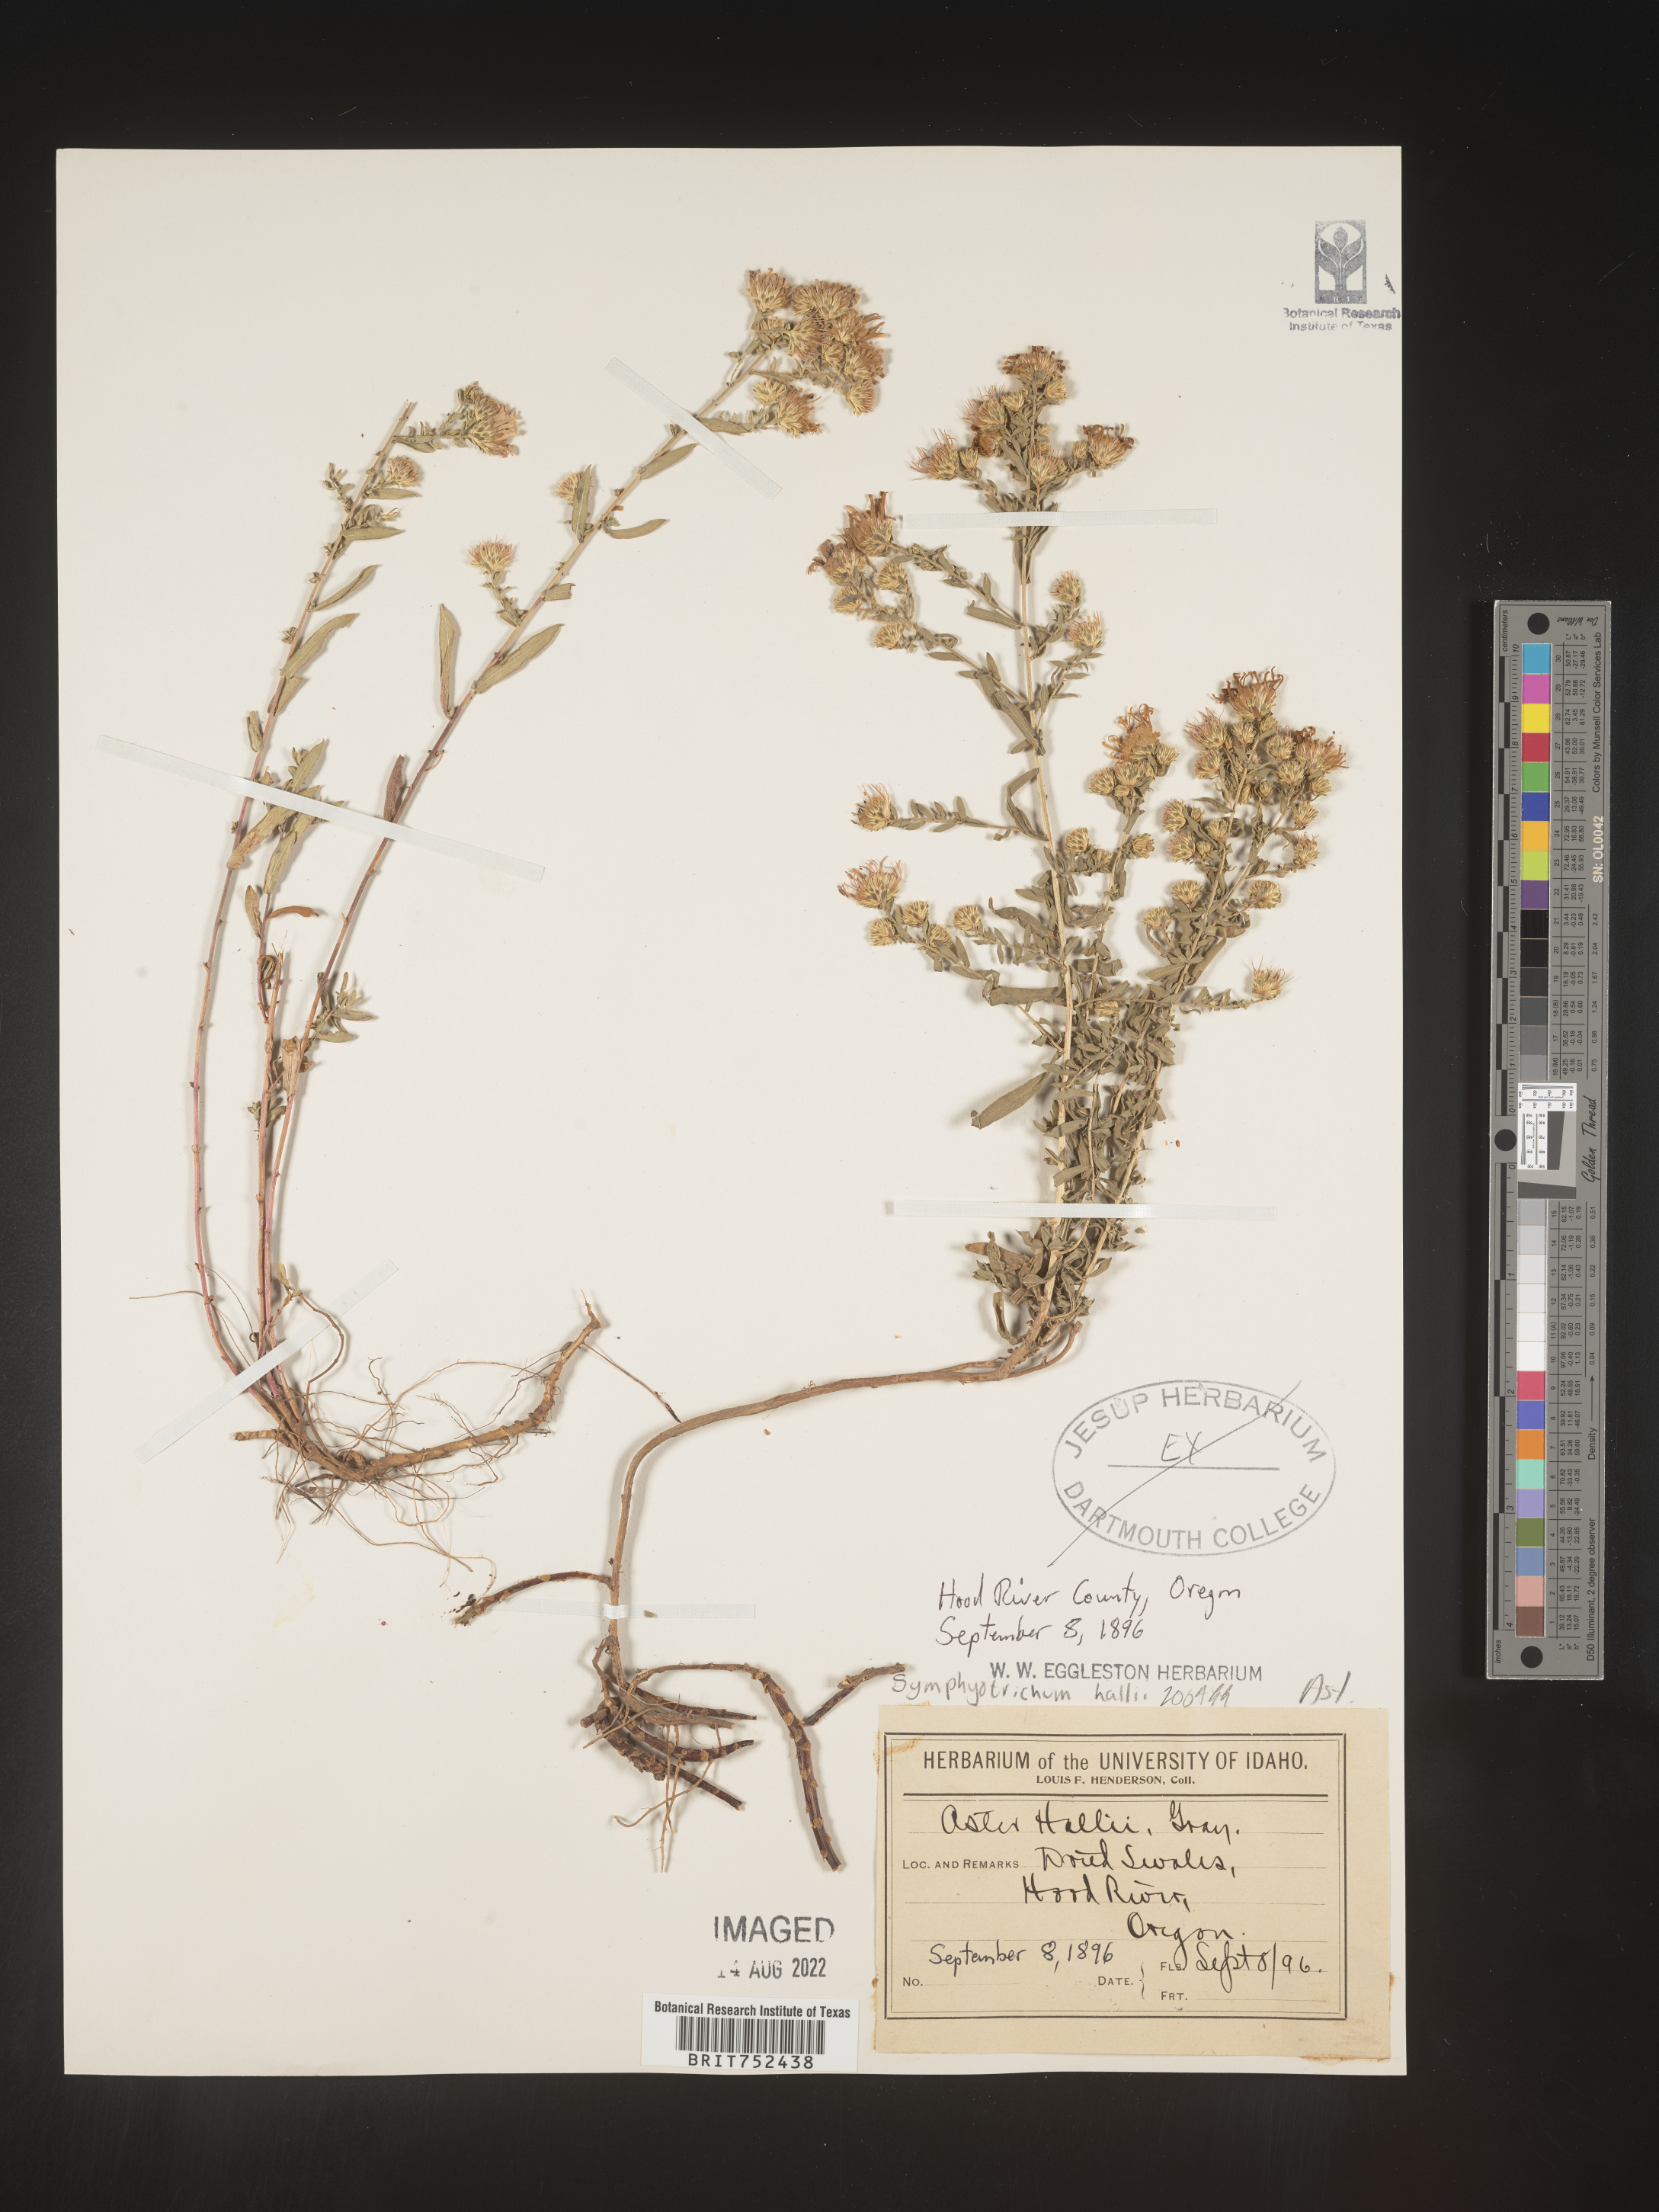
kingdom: Plantae
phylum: Tracheophyta
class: Magnoliopsida
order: Asterales
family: Asteraceae
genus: Symphyotrichum
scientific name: Symphyotrichum hallii
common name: Hall's aster
